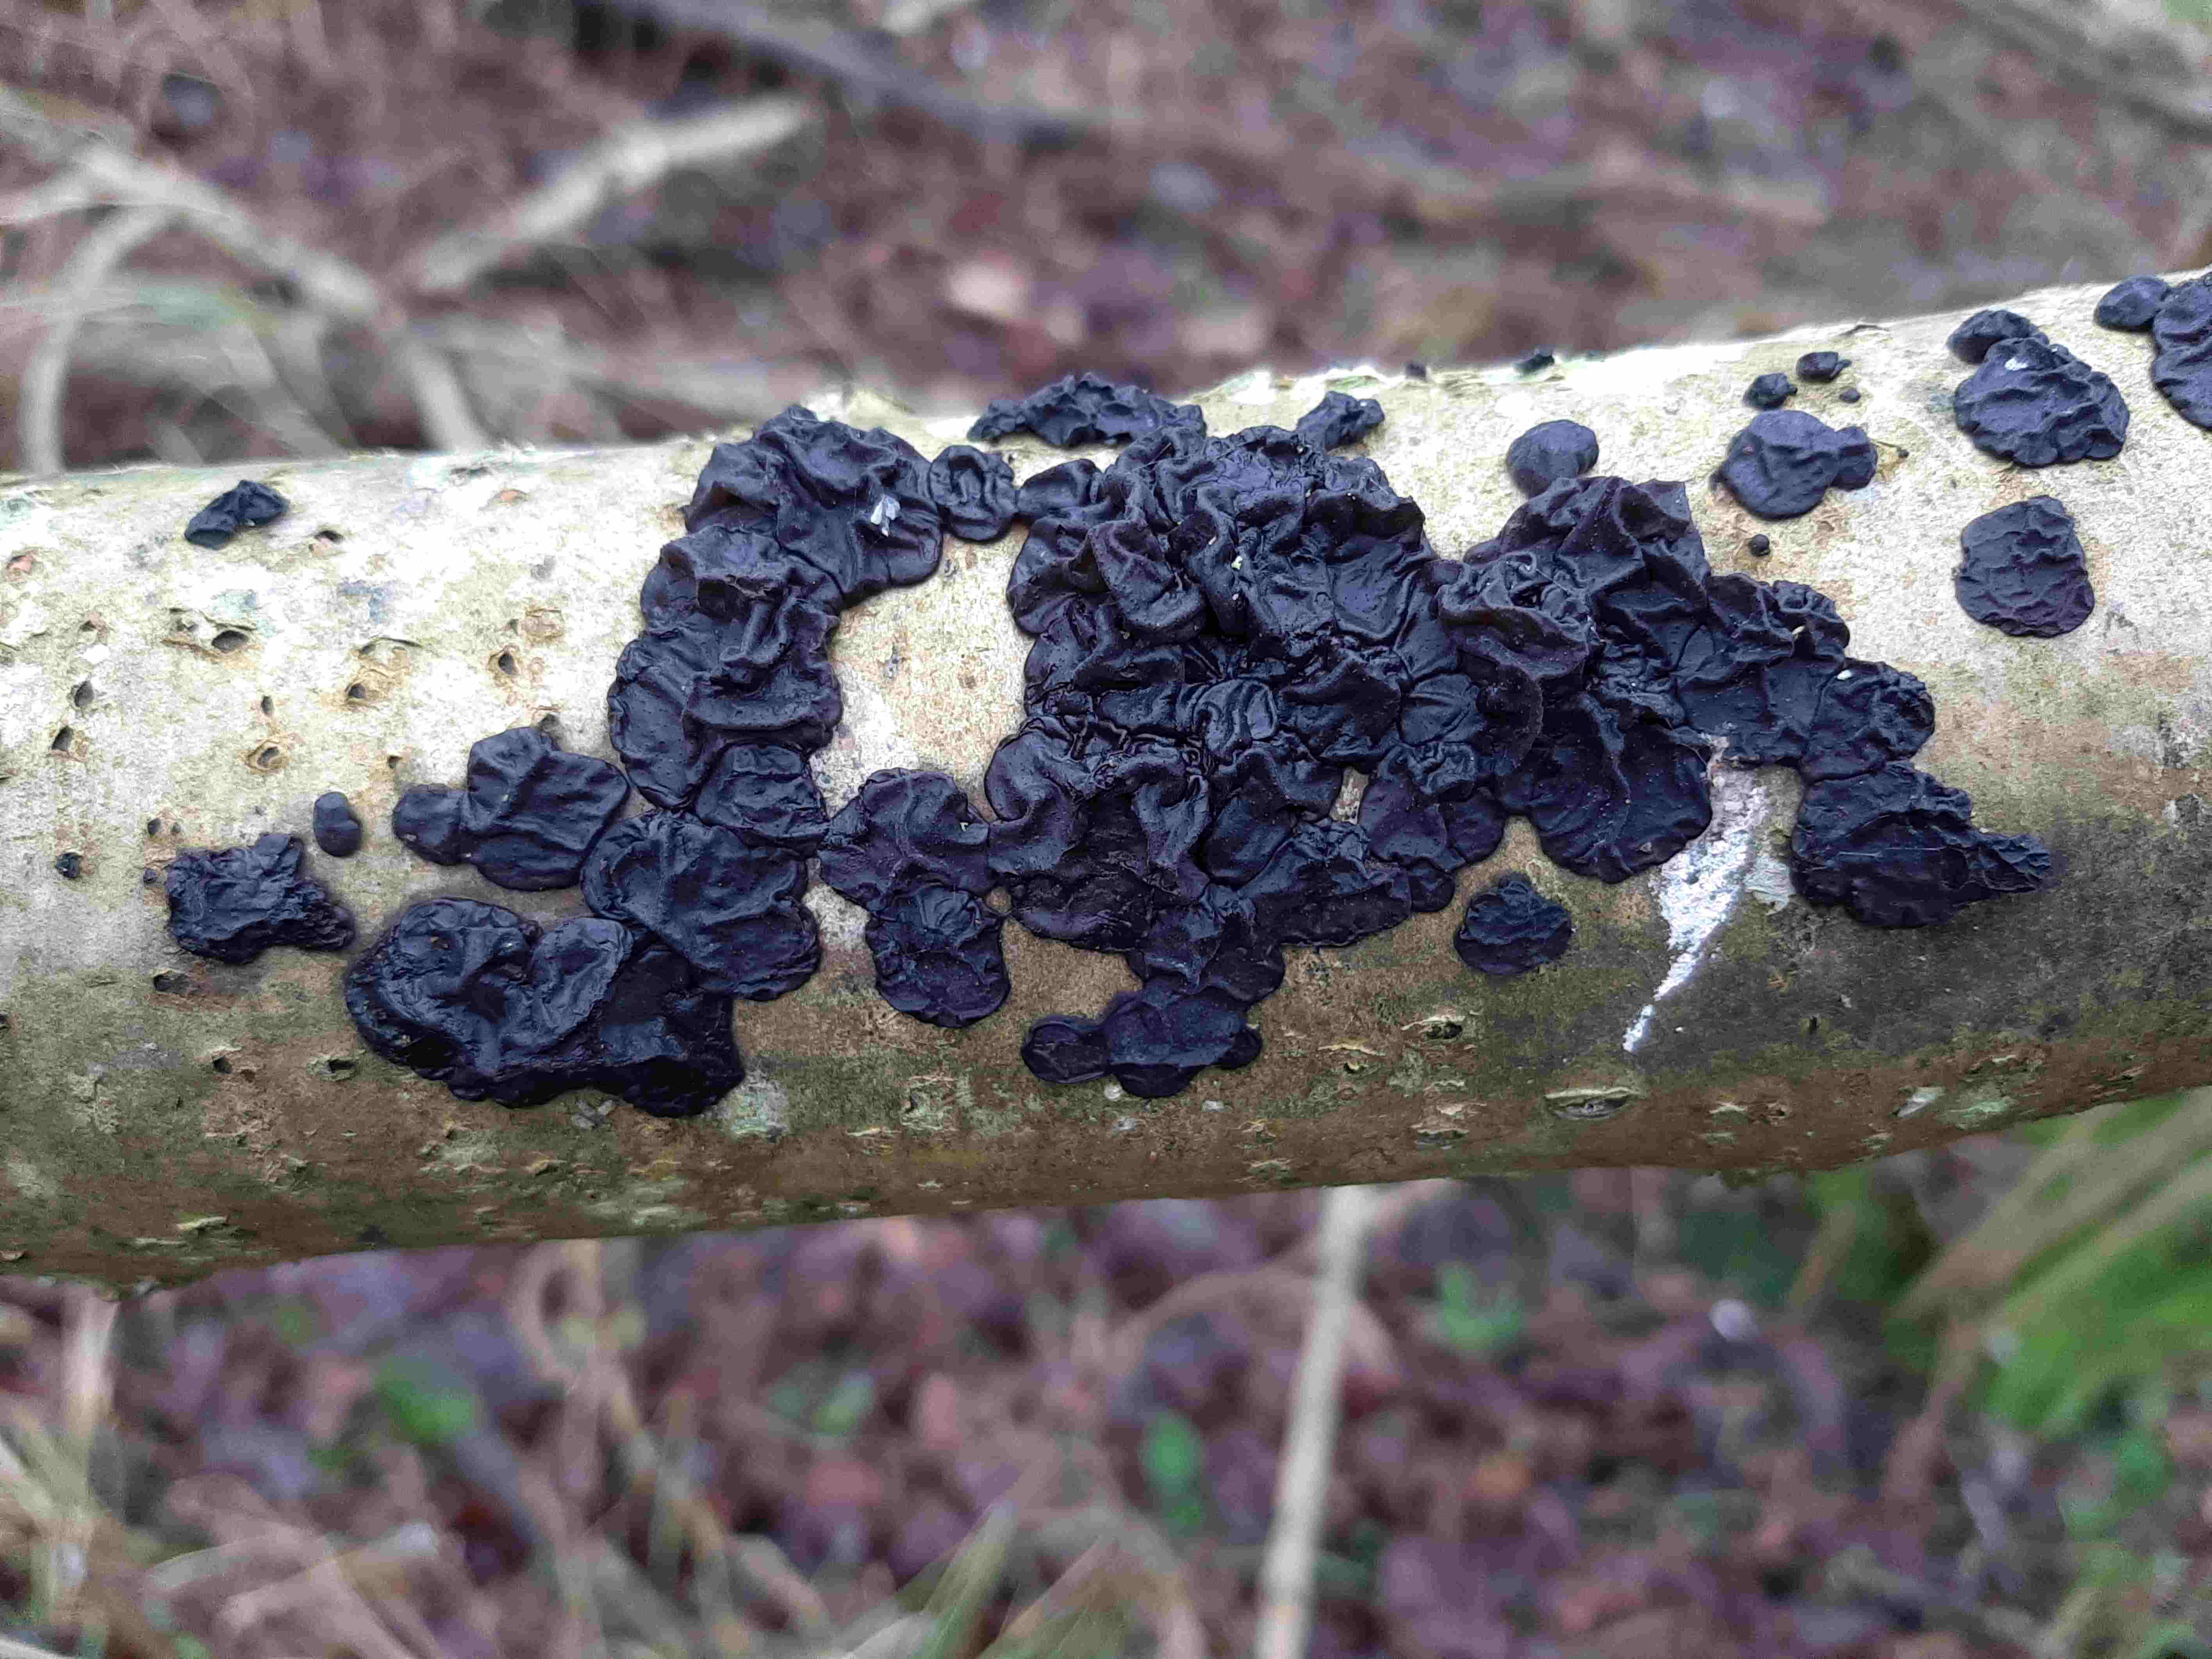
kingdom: Fungi
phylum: Basidiomycota
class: Agaricomycetes
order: Auriculariales
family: Auriculariaceae
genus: Exidia
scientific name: Exidia nigricans
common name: almindelig bævretop
